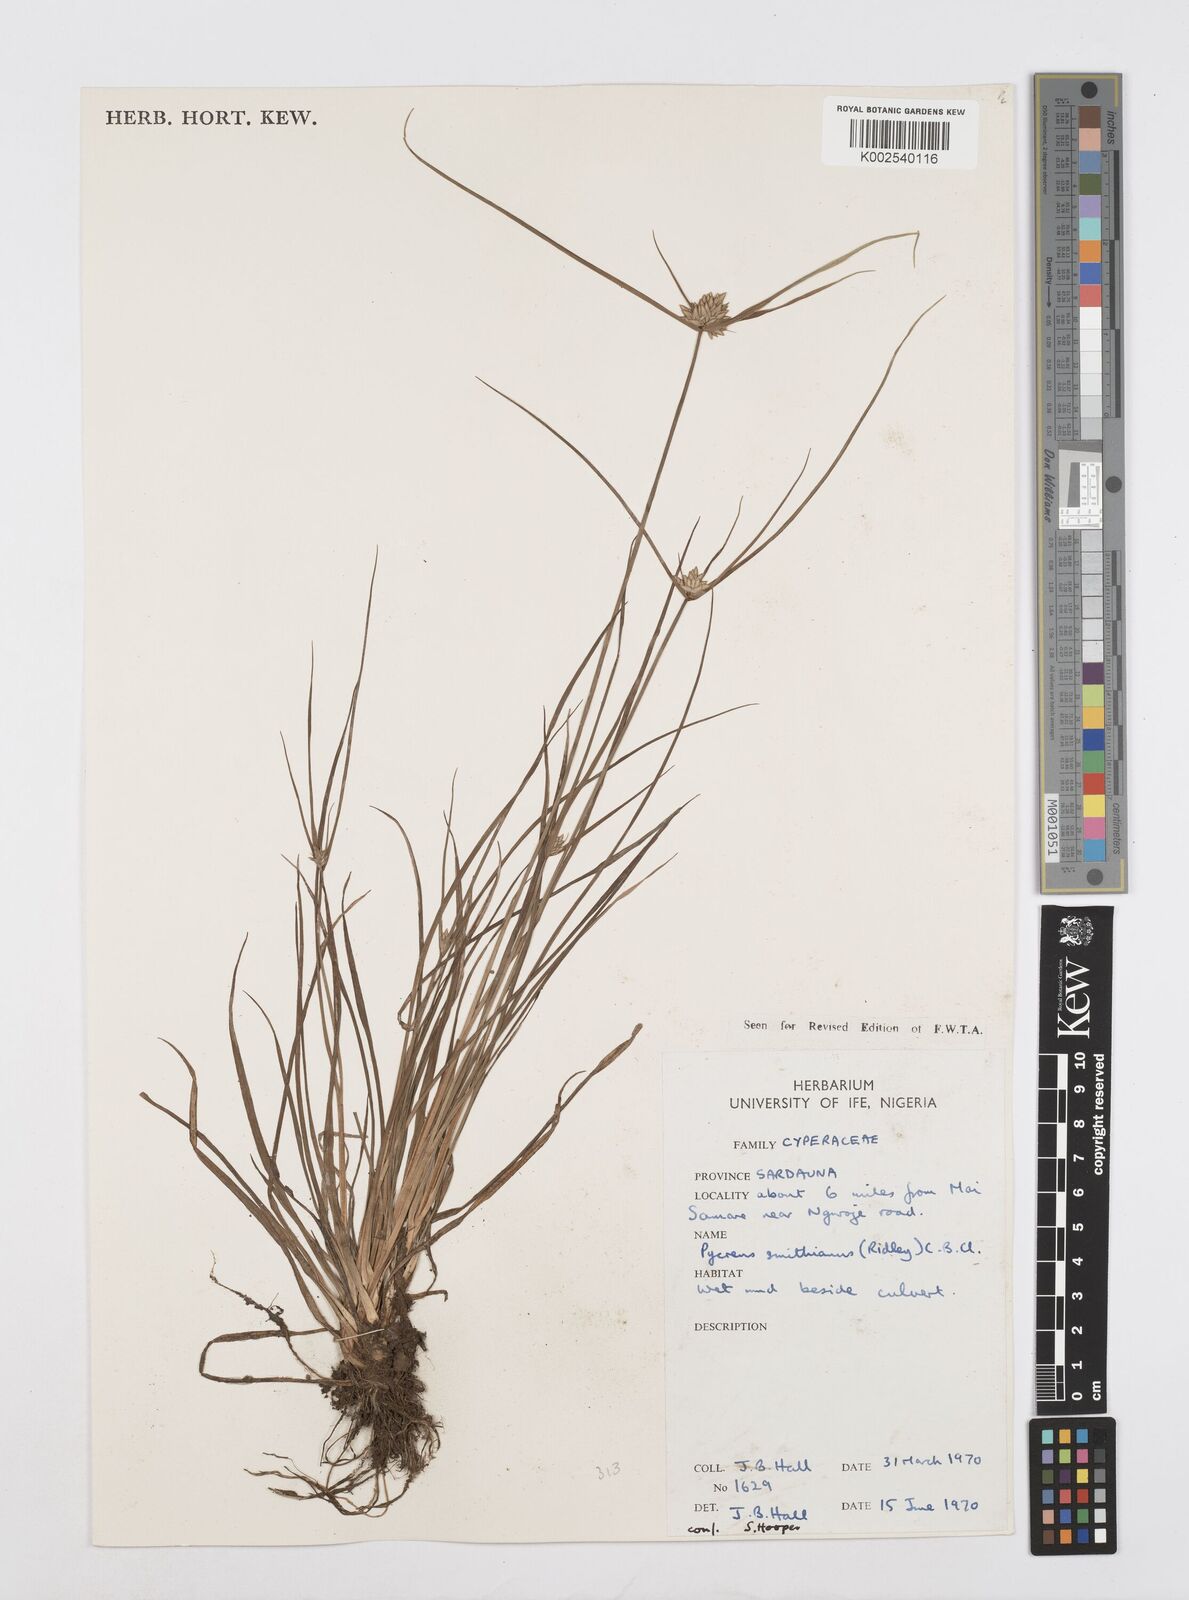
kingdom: Plantae
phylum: Tracheophyta
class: Liliopsida
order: Poales
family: Cyperaceae
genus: Cyperus
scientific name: Cyperus smithianus
